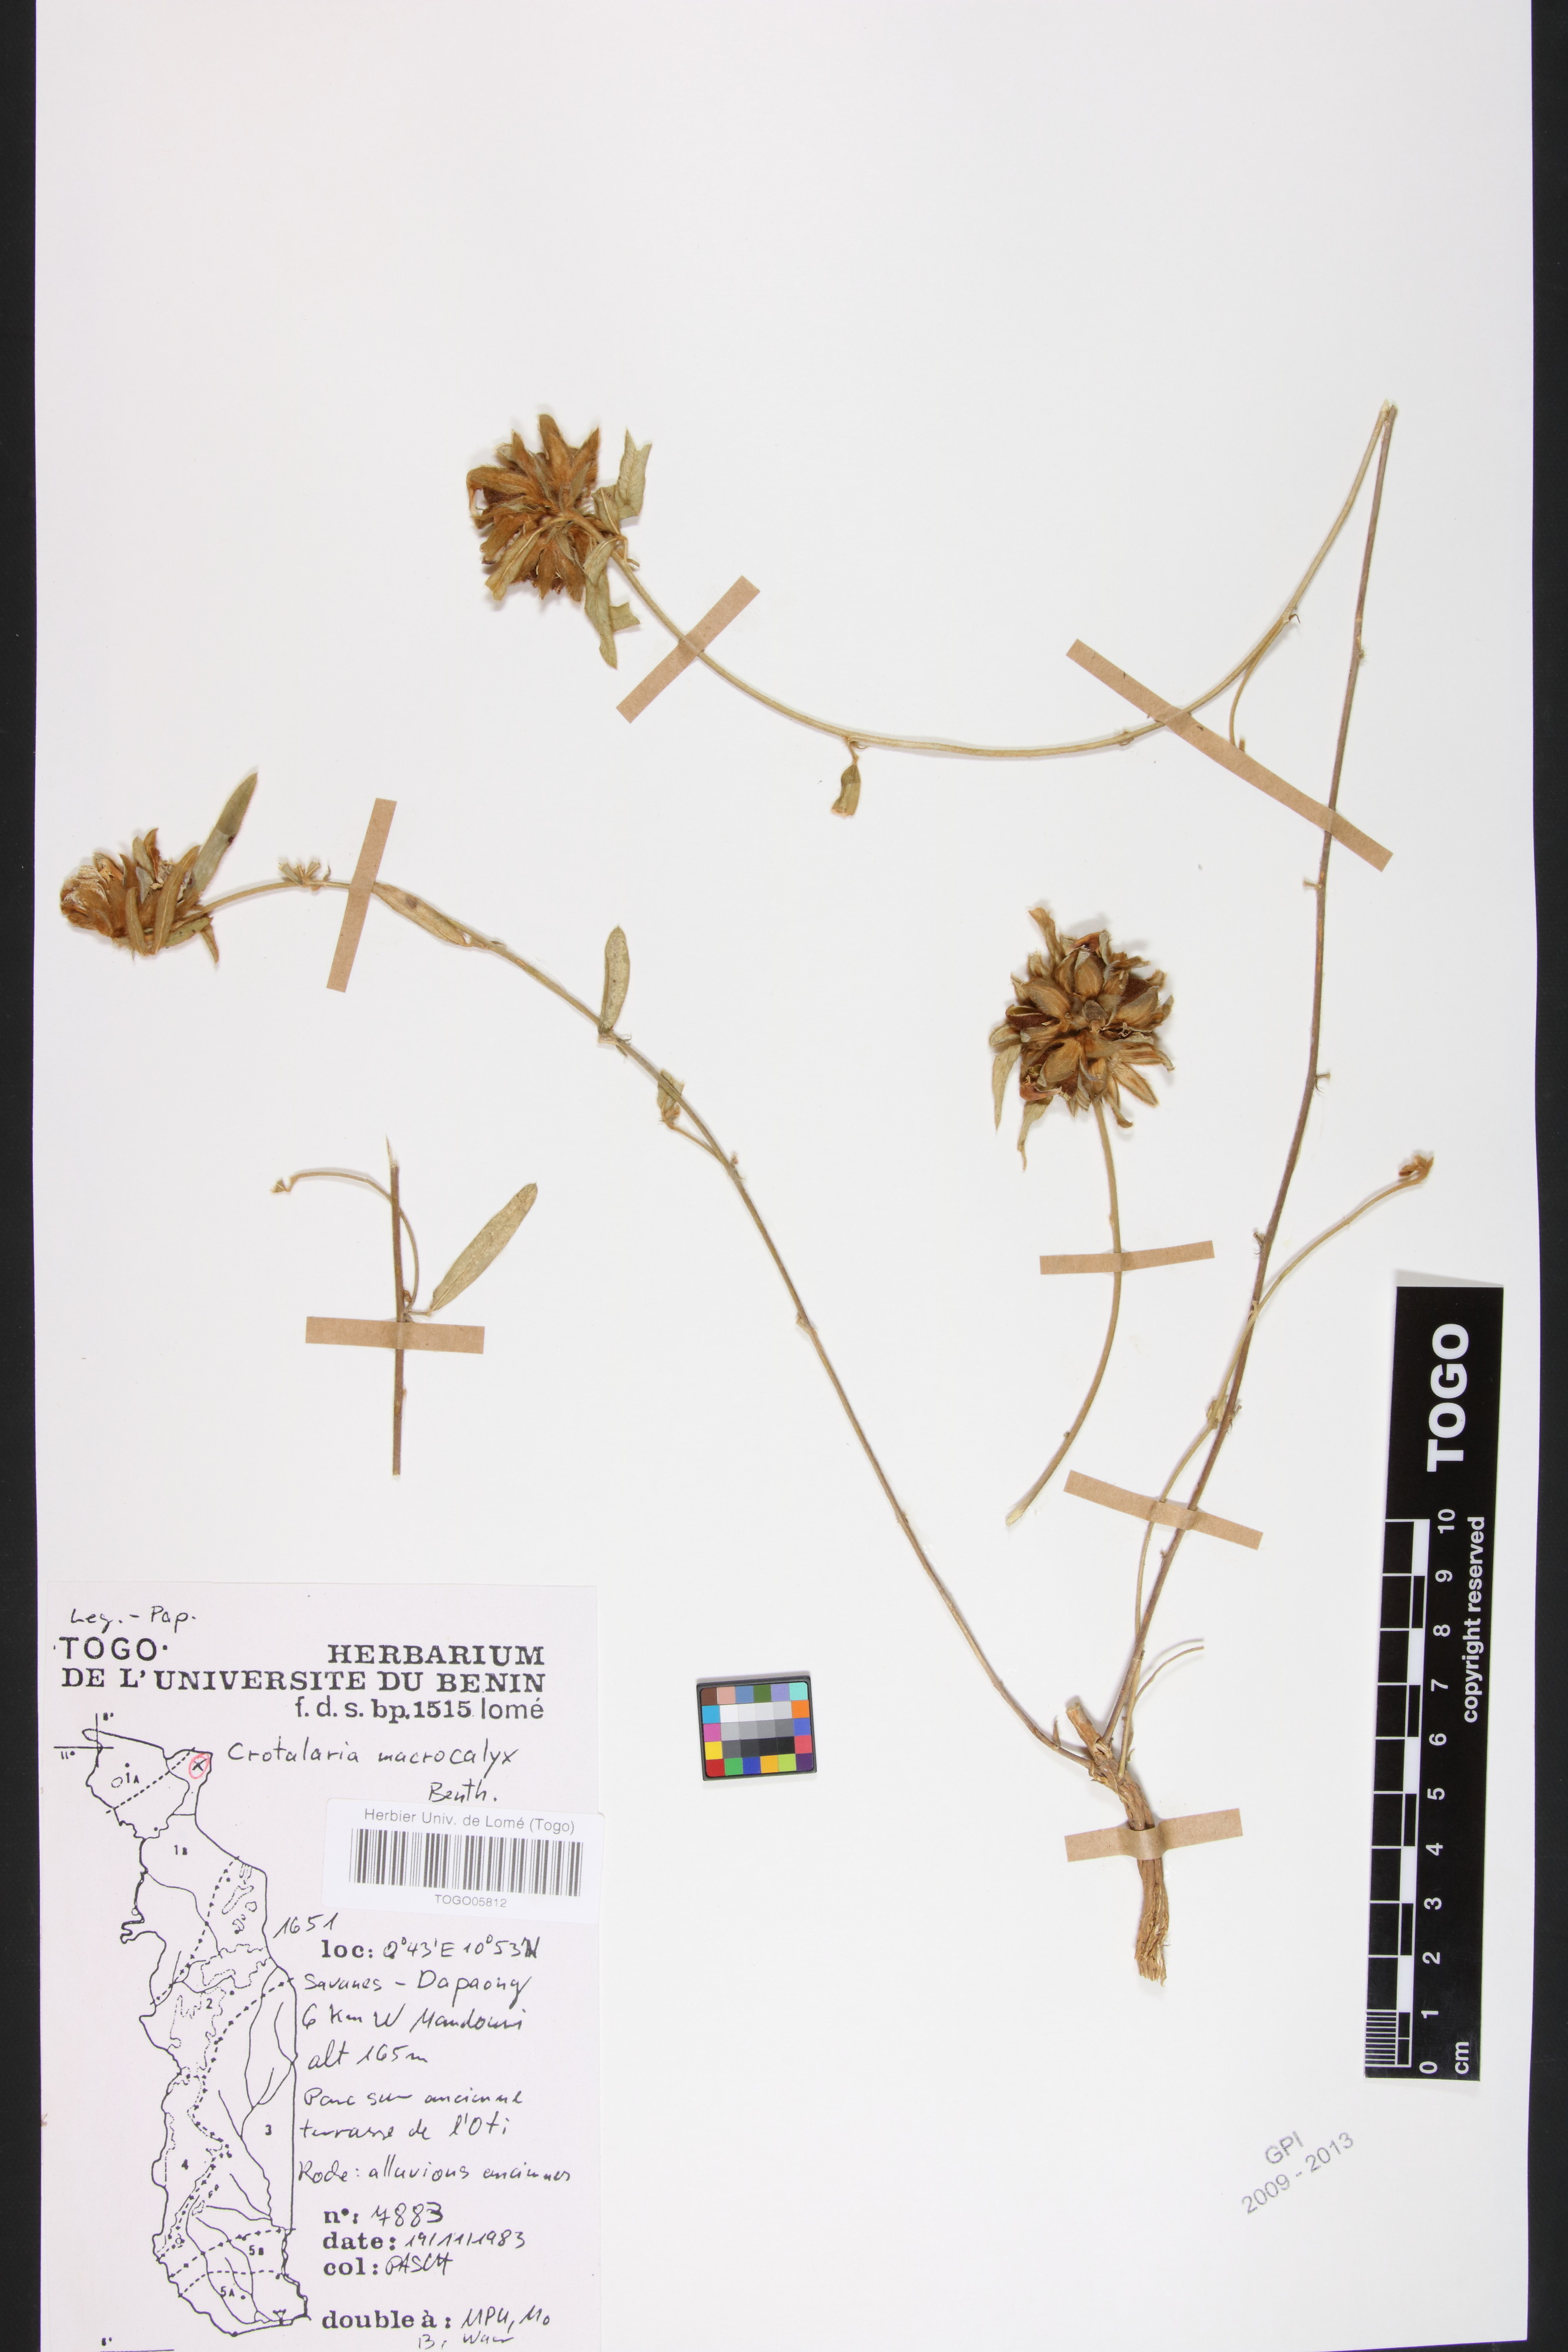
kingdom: Plantae
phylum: Tracheophyta
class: Magnoliopsida
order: Fabales
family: Fabaceae
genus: Crotalaria
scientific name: Crotalaria macrocalyx
